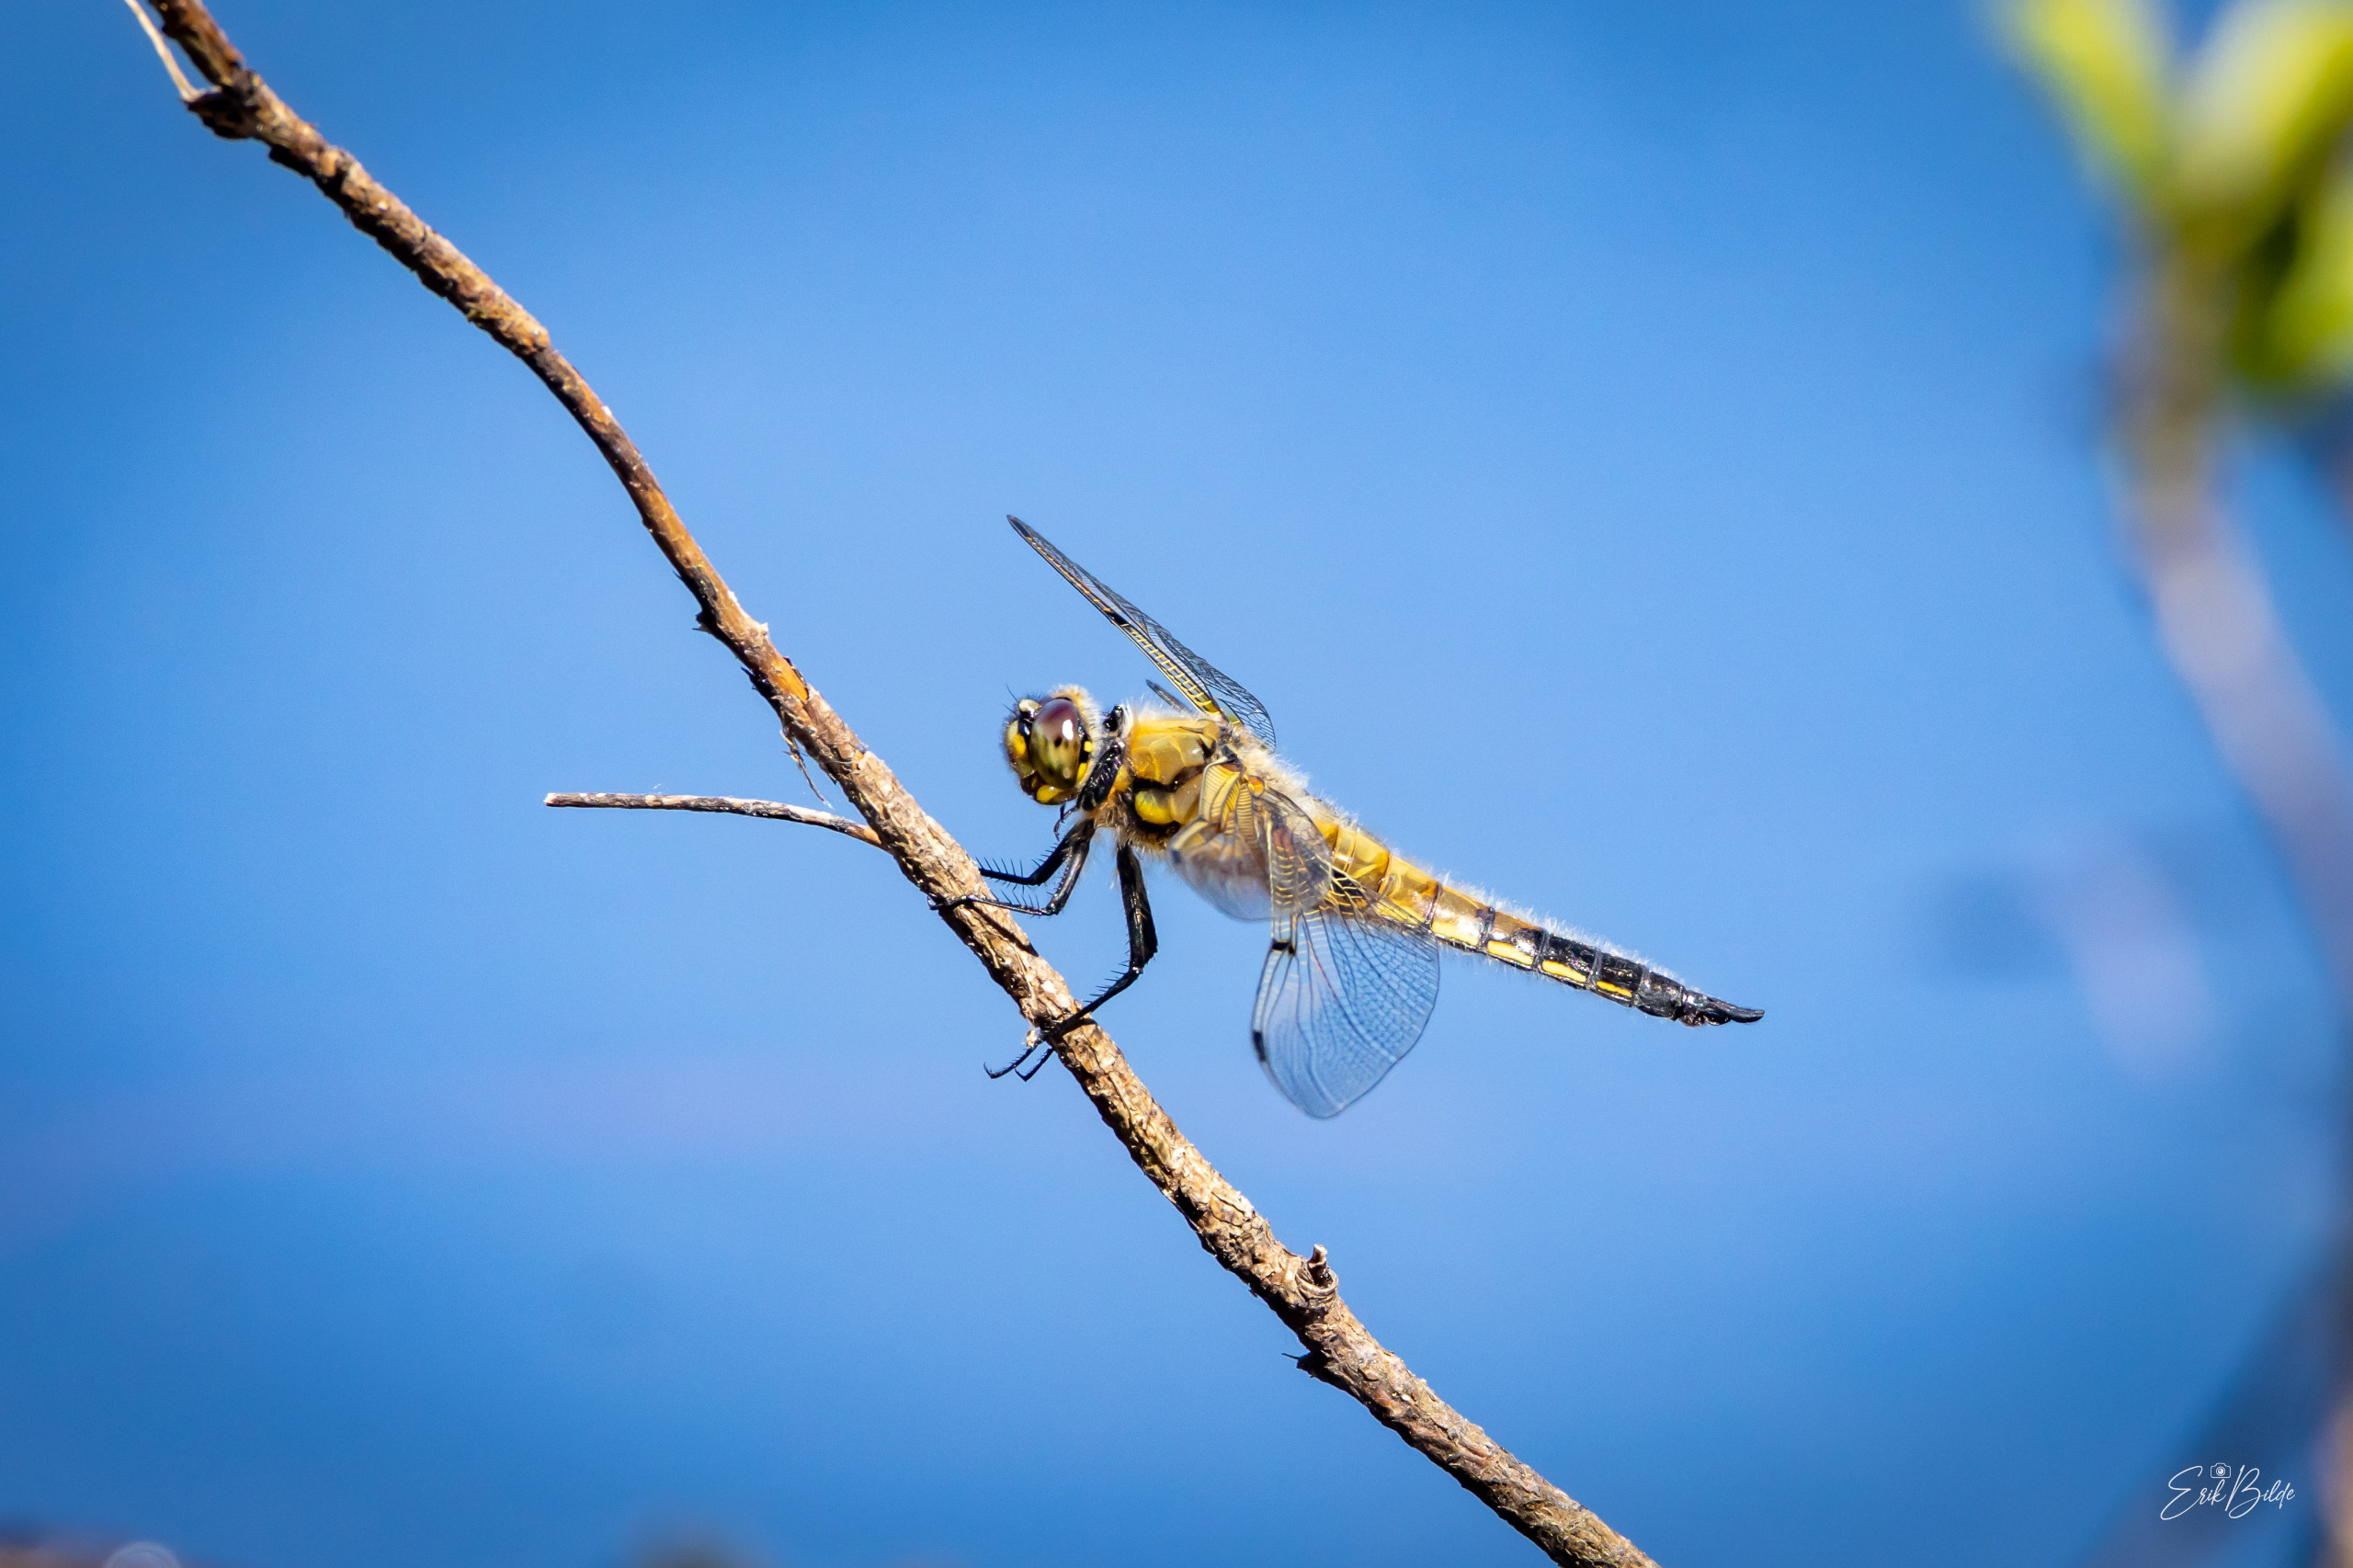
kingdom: Animalia
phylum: Arthropoda
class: Insecta
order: Odonata
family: Libellulidae
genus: Libellula
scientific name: Libellula quadrimaculata
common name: Fireplettet libel
